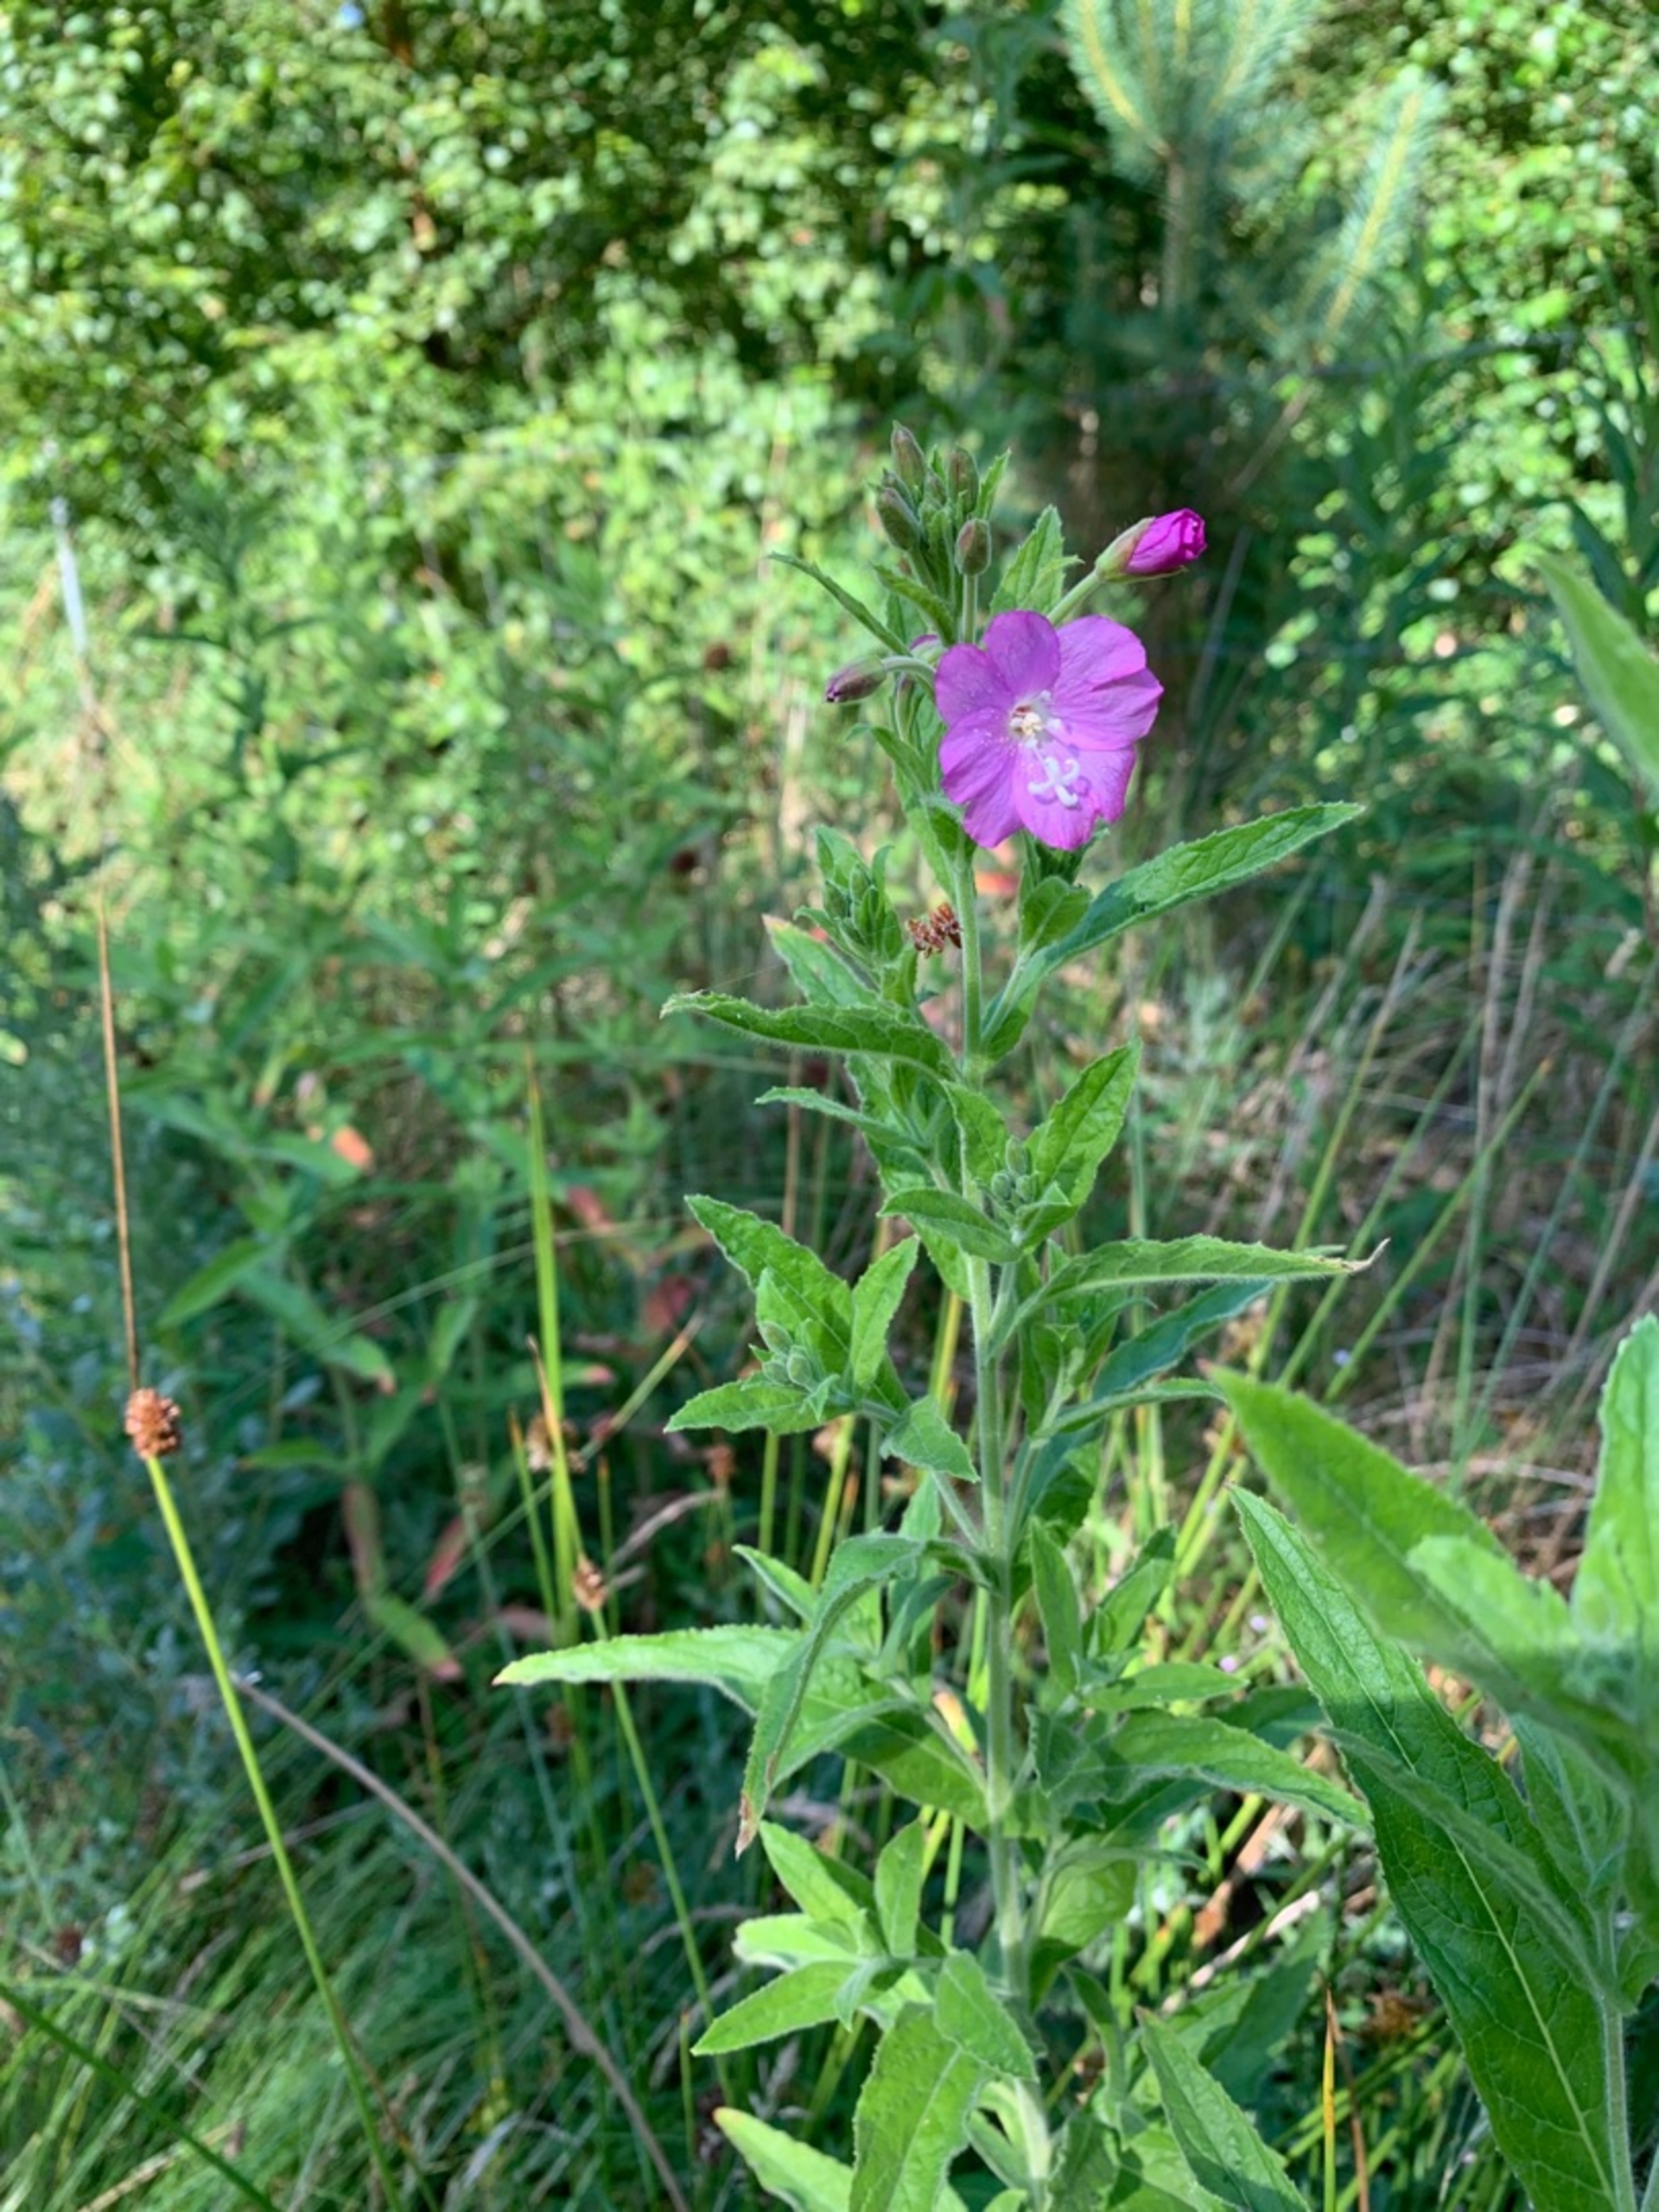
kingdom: Plantae
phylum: Tracheophyta
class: Magnoliopsida
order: Myrtales
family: Onagraceae
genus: Epilobium
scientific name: Epilobium hirsutum
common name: Lådden dueurt
